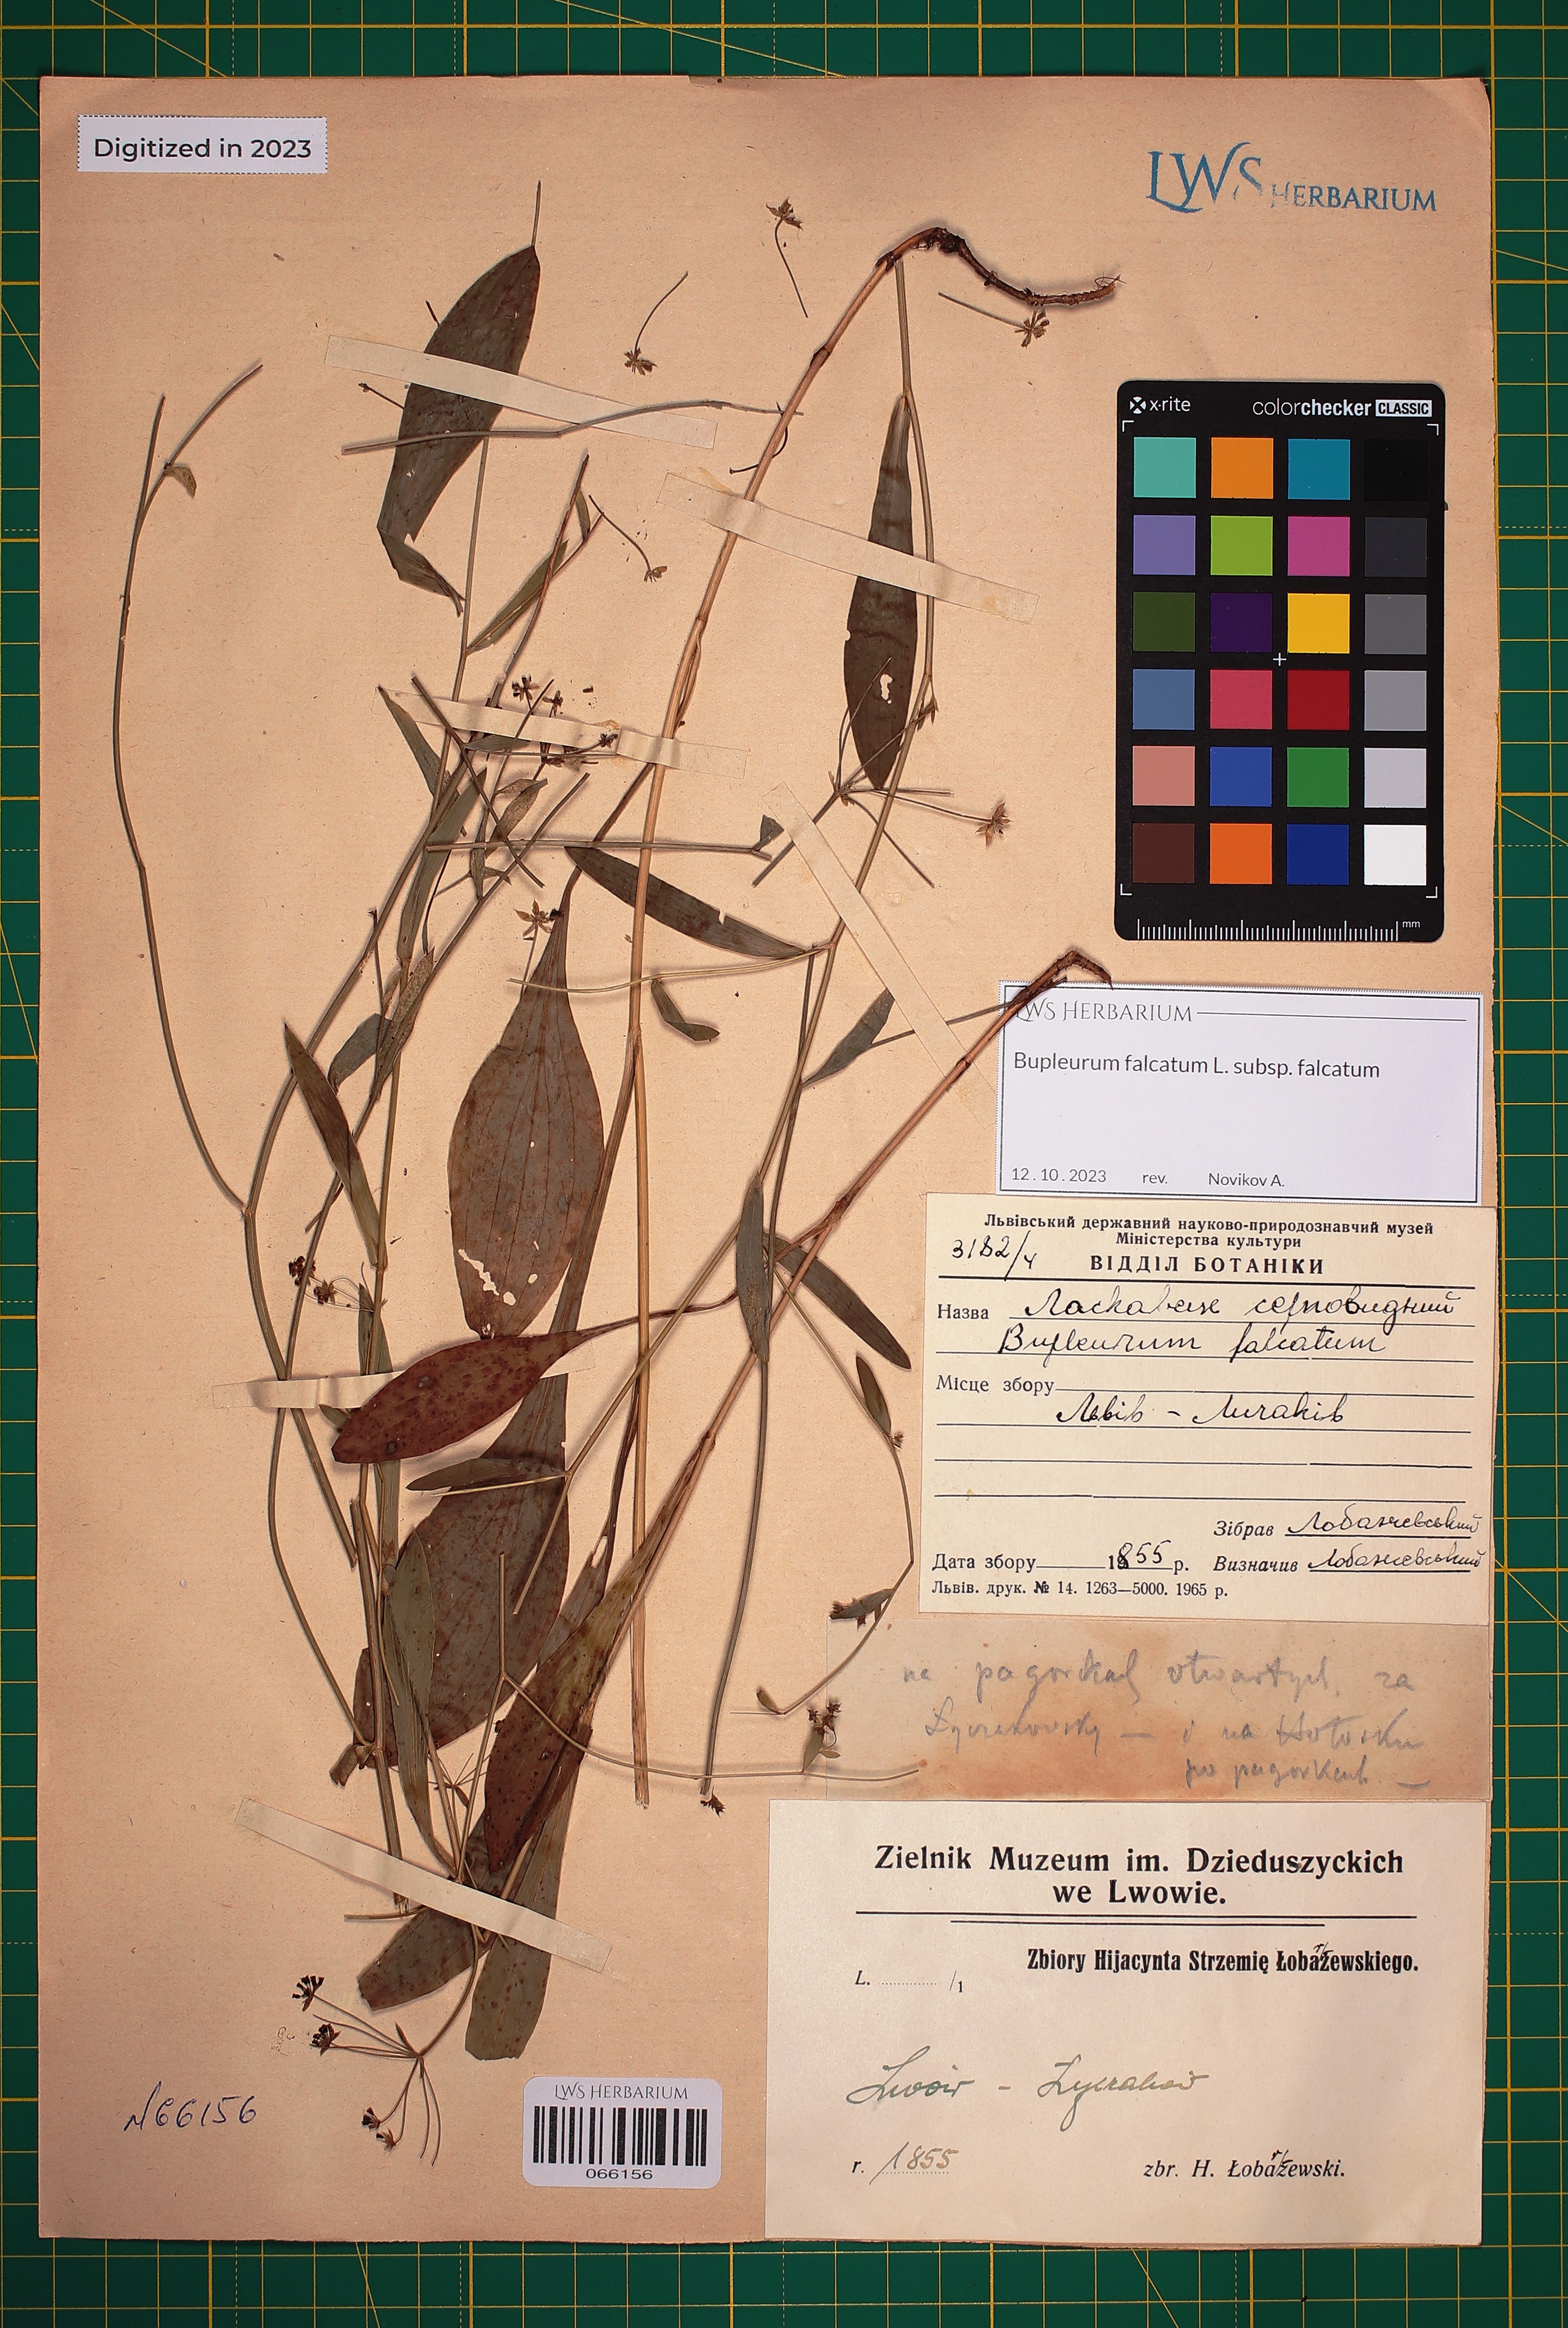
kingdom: Plantae
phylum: Tracheophyta
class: Magnoliopsida
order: Apiales
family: Apiaceae
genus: Bupleurum
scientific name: Bupleurum falcatum
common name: Sickle-leaved hare's-ear
